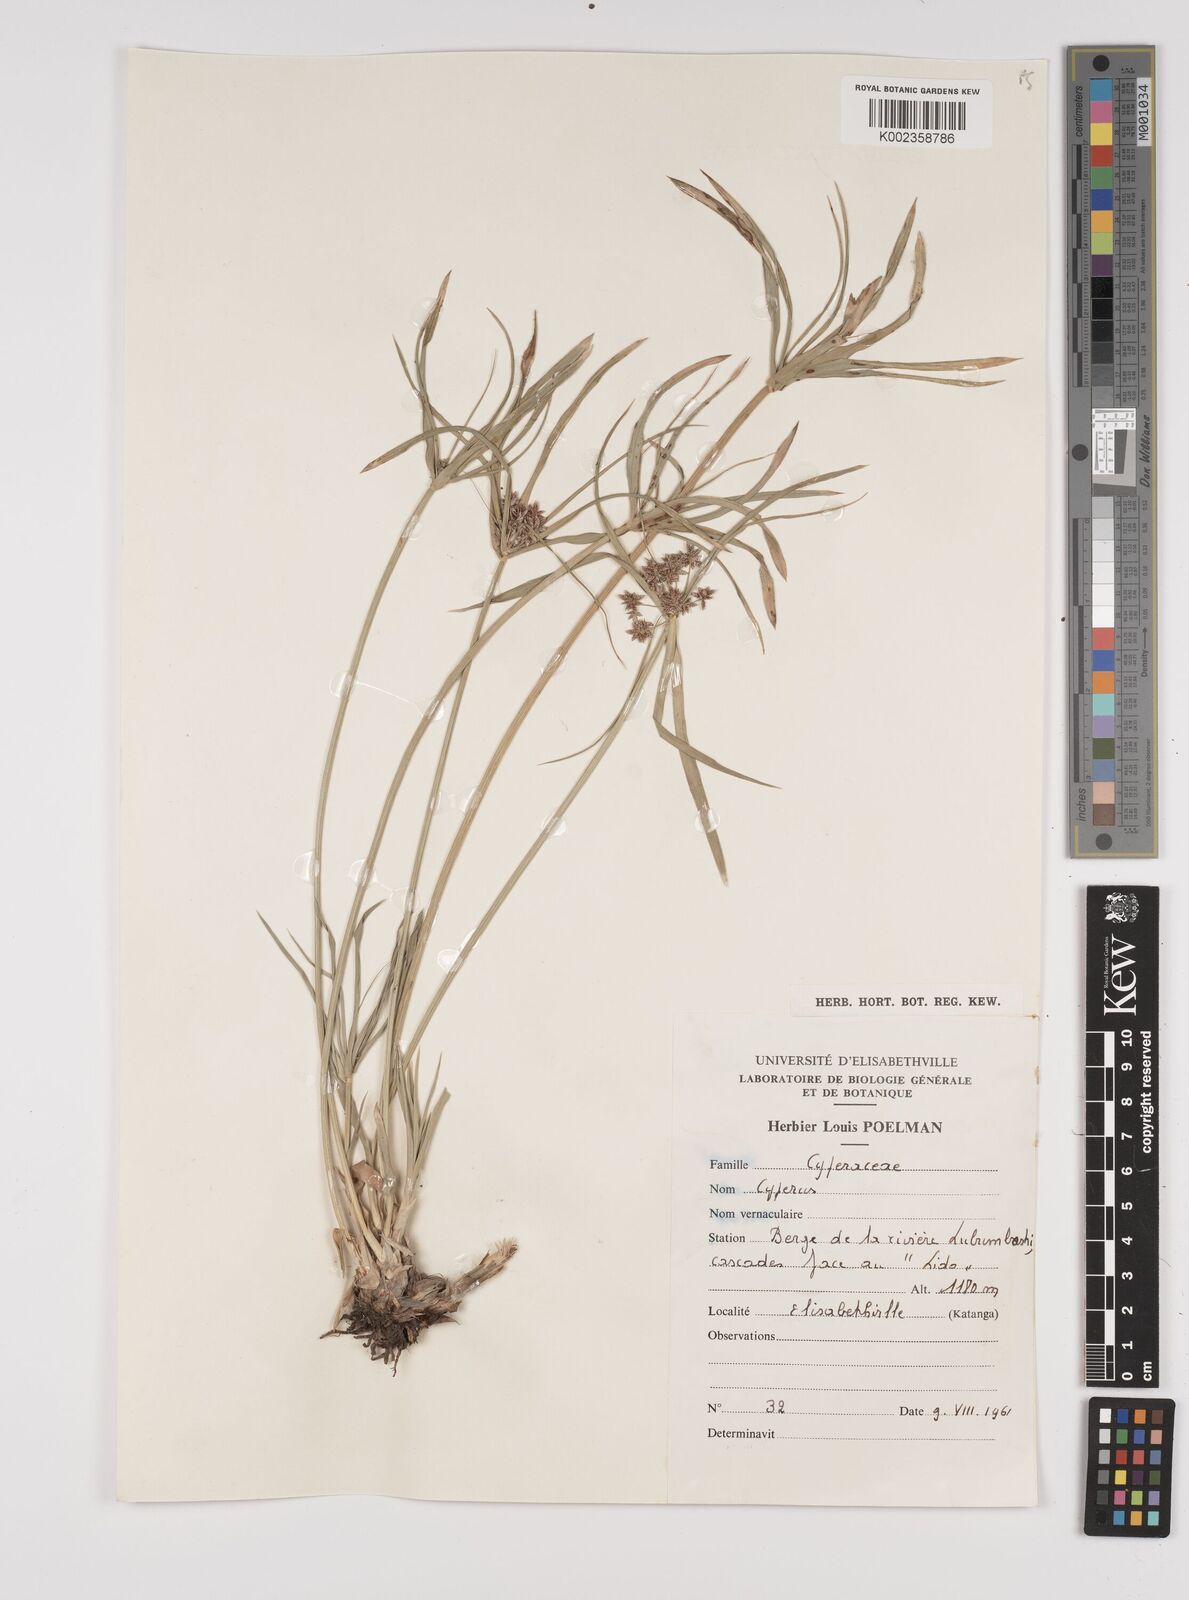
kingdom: Plantae
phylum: Tracheophyta
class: Liliopsida
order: Poales
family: Cyperaceae
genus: Cyperus
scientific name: Cyperus alternifolius
